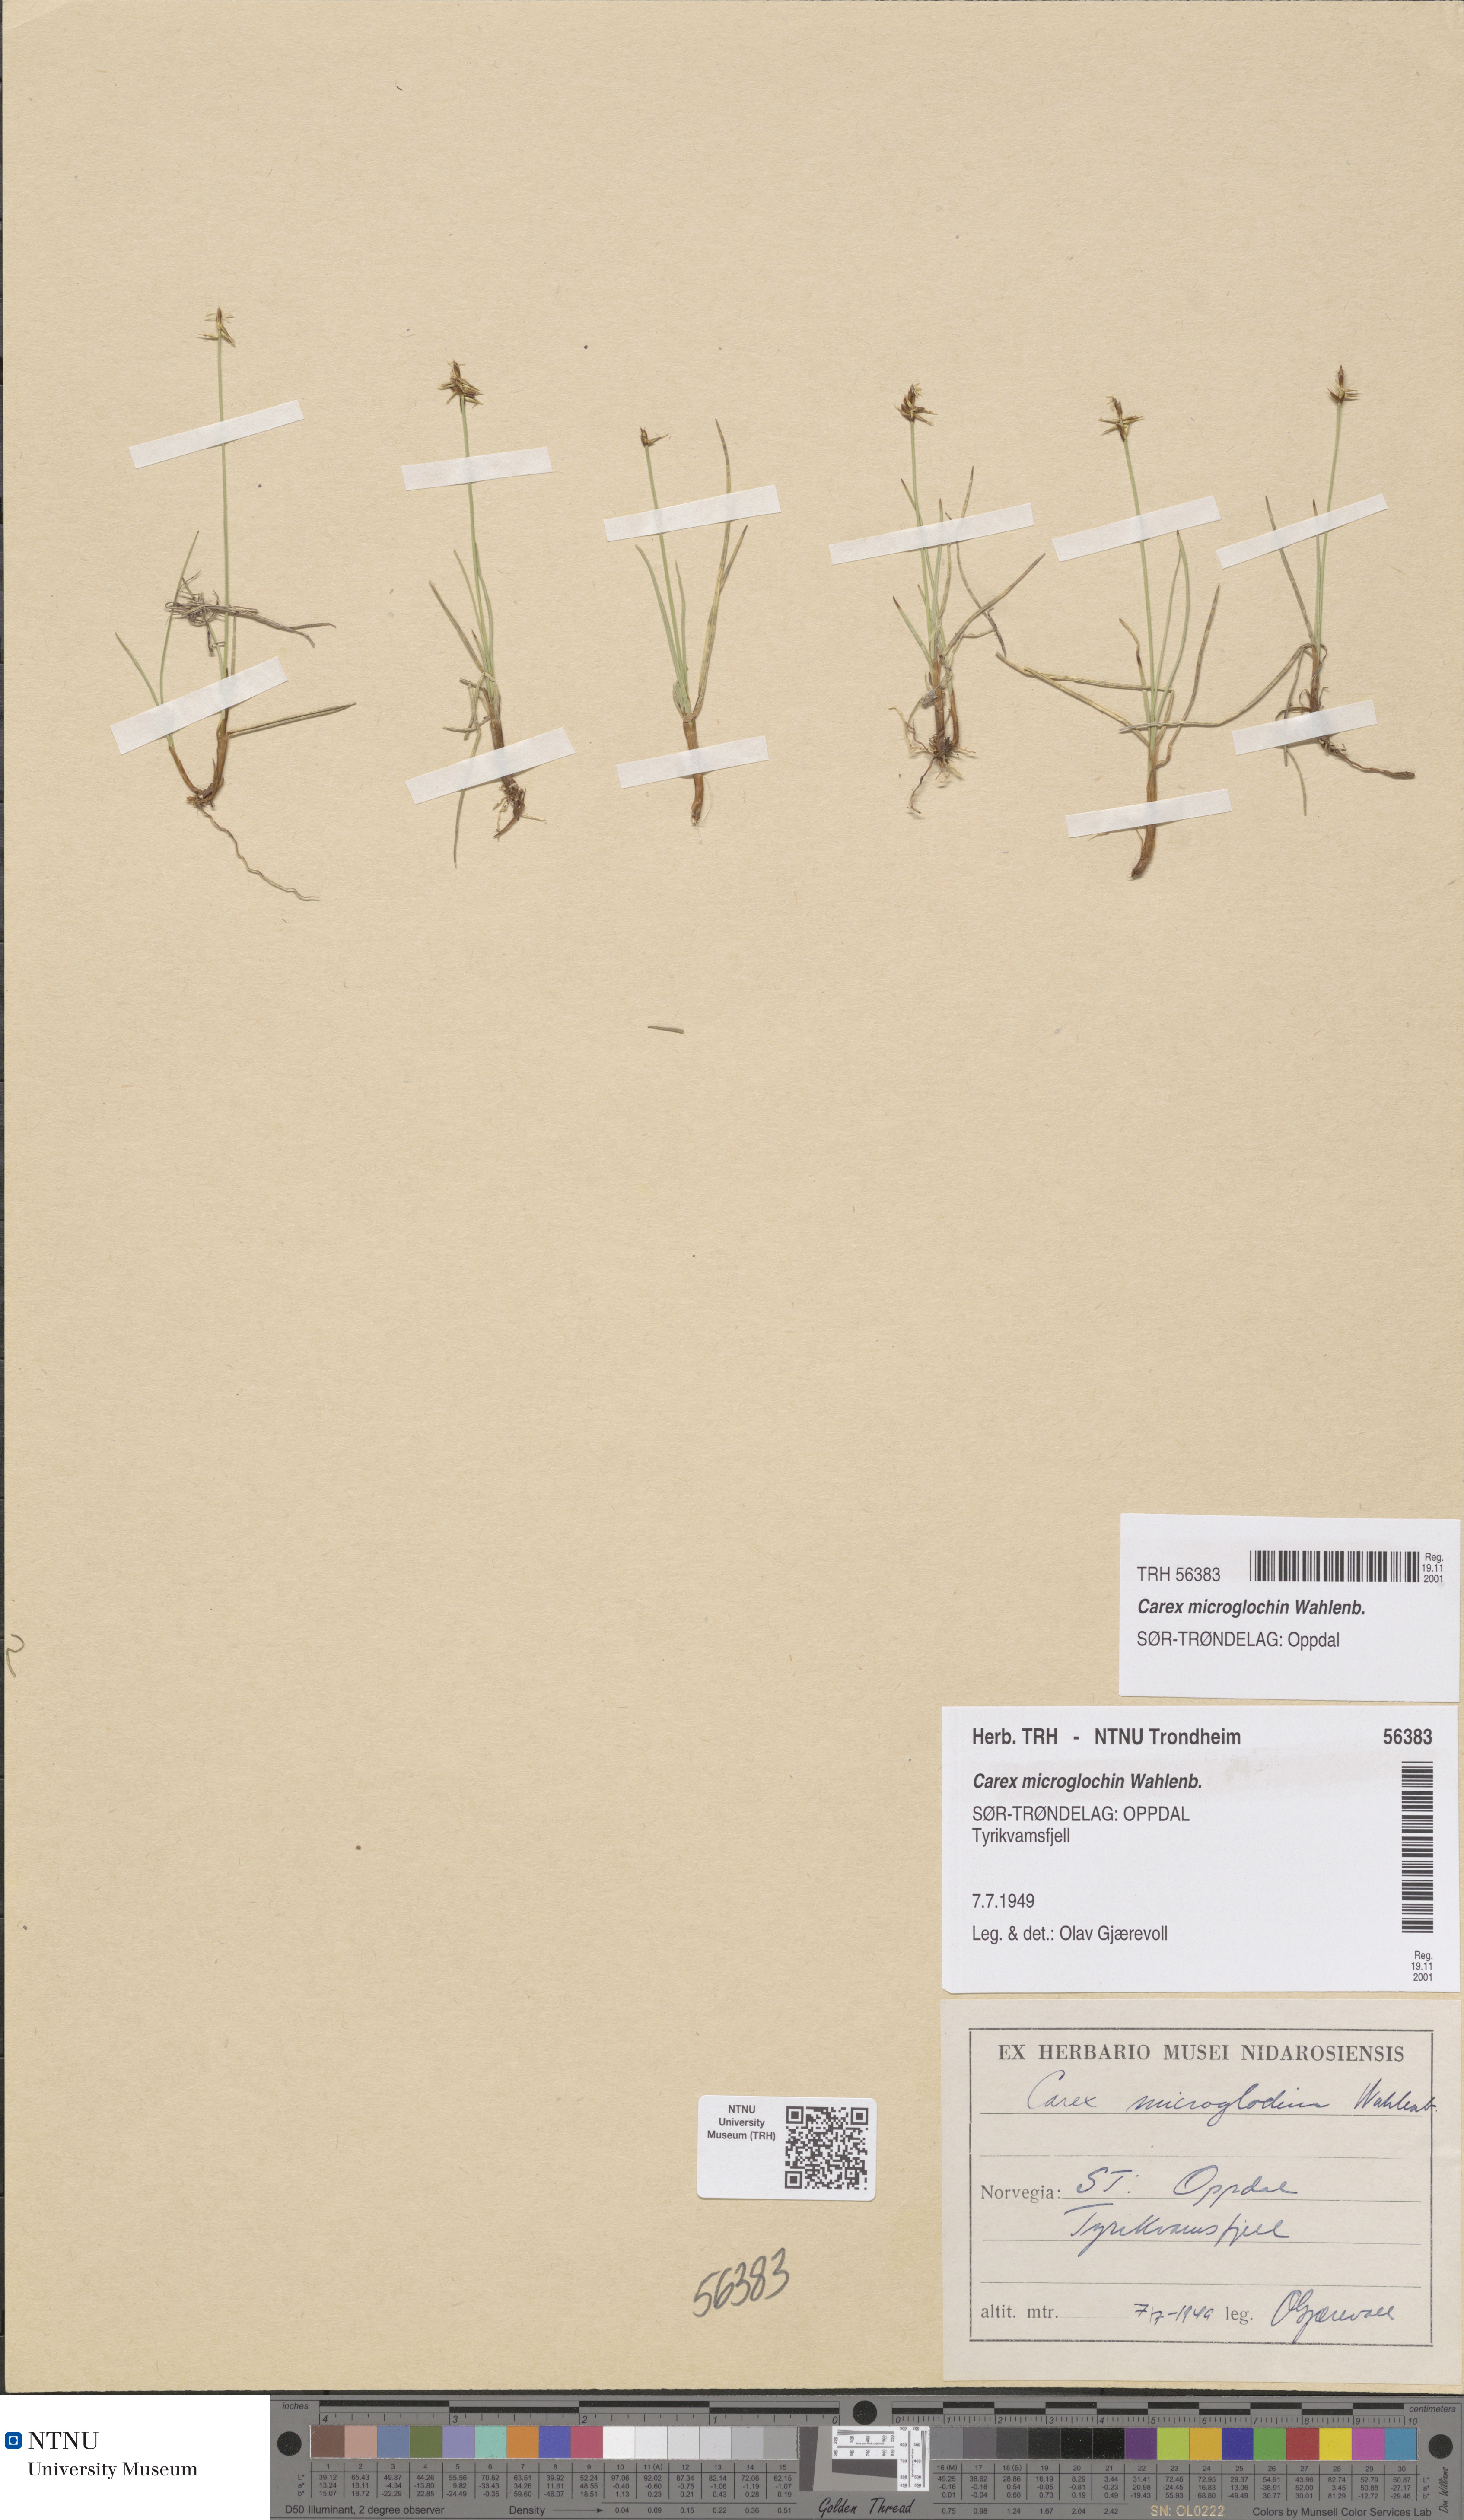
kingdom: Plantae
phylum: Tracheophyta
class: Liliopsida
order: Poales
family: Cyperaceae
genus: Carex
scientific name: Carex microglochin
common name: Bristle sedge
